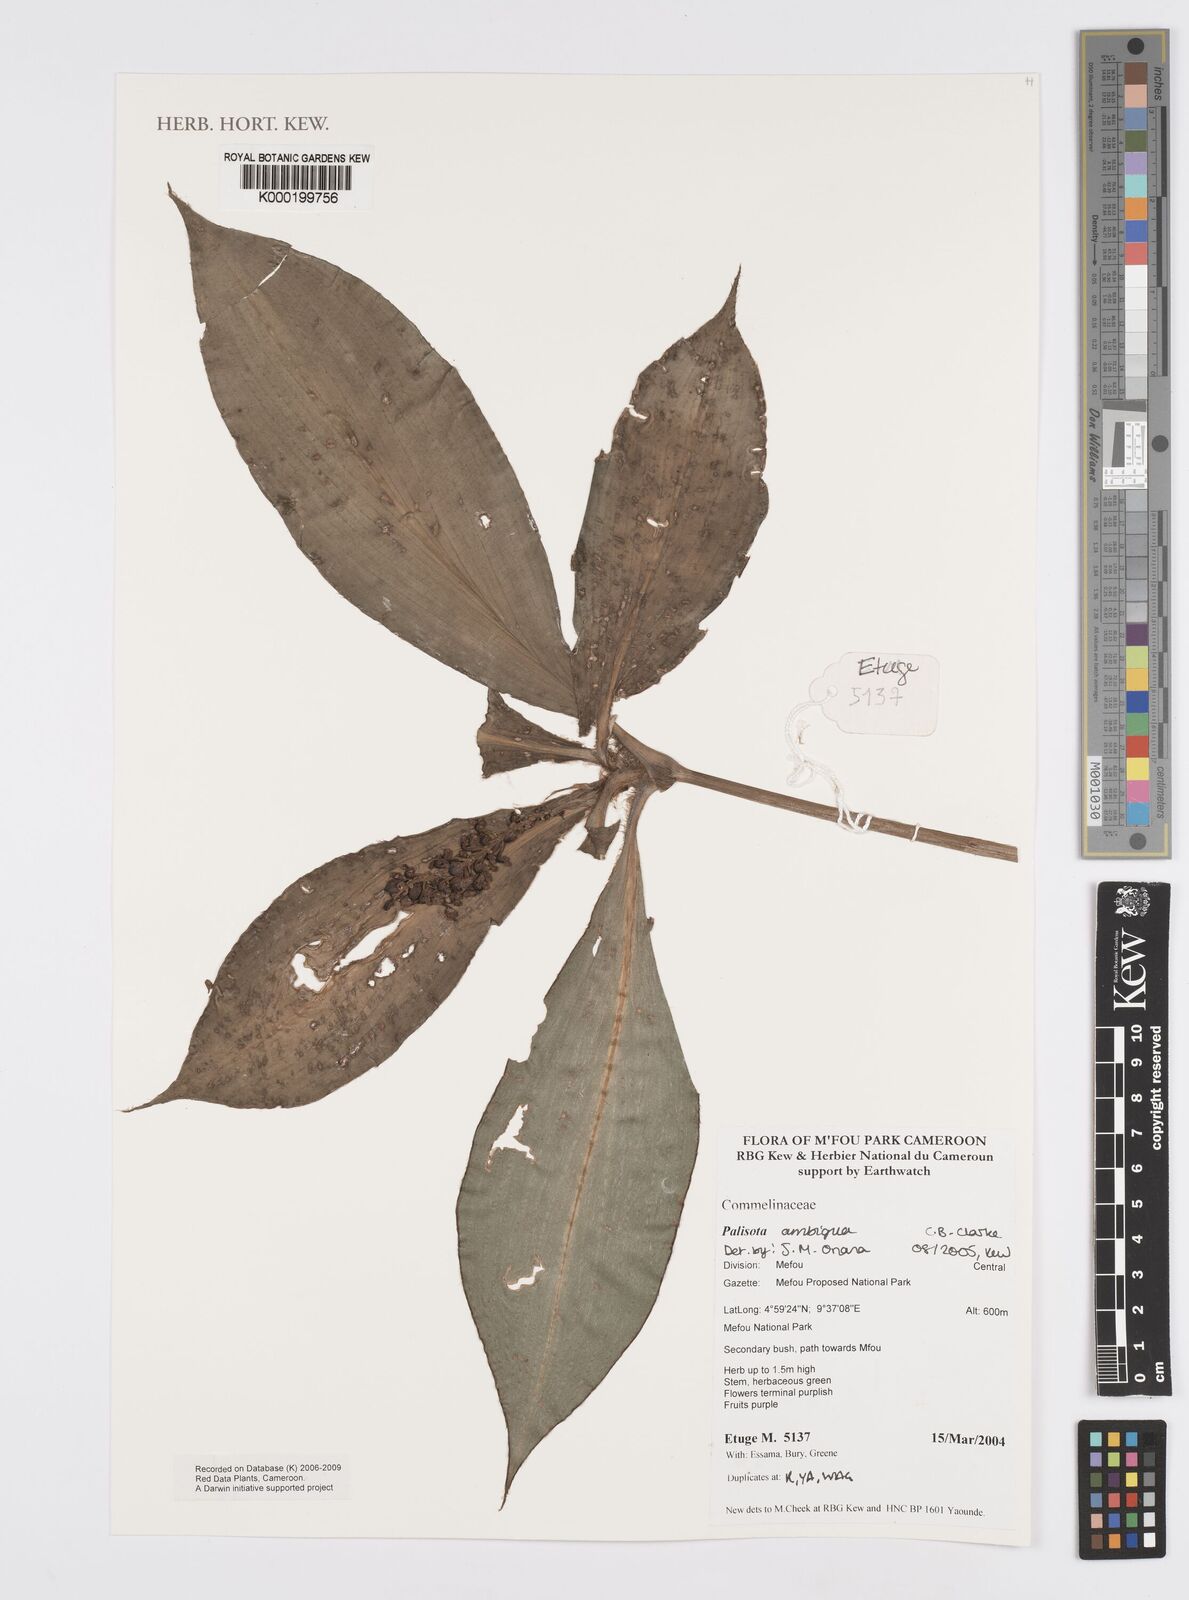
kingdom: Plantae
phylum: Tracheophyta
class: Liliopsida
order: Commelinales
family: Commelinaceae
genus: Palisota
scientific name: Palisota ambigua
